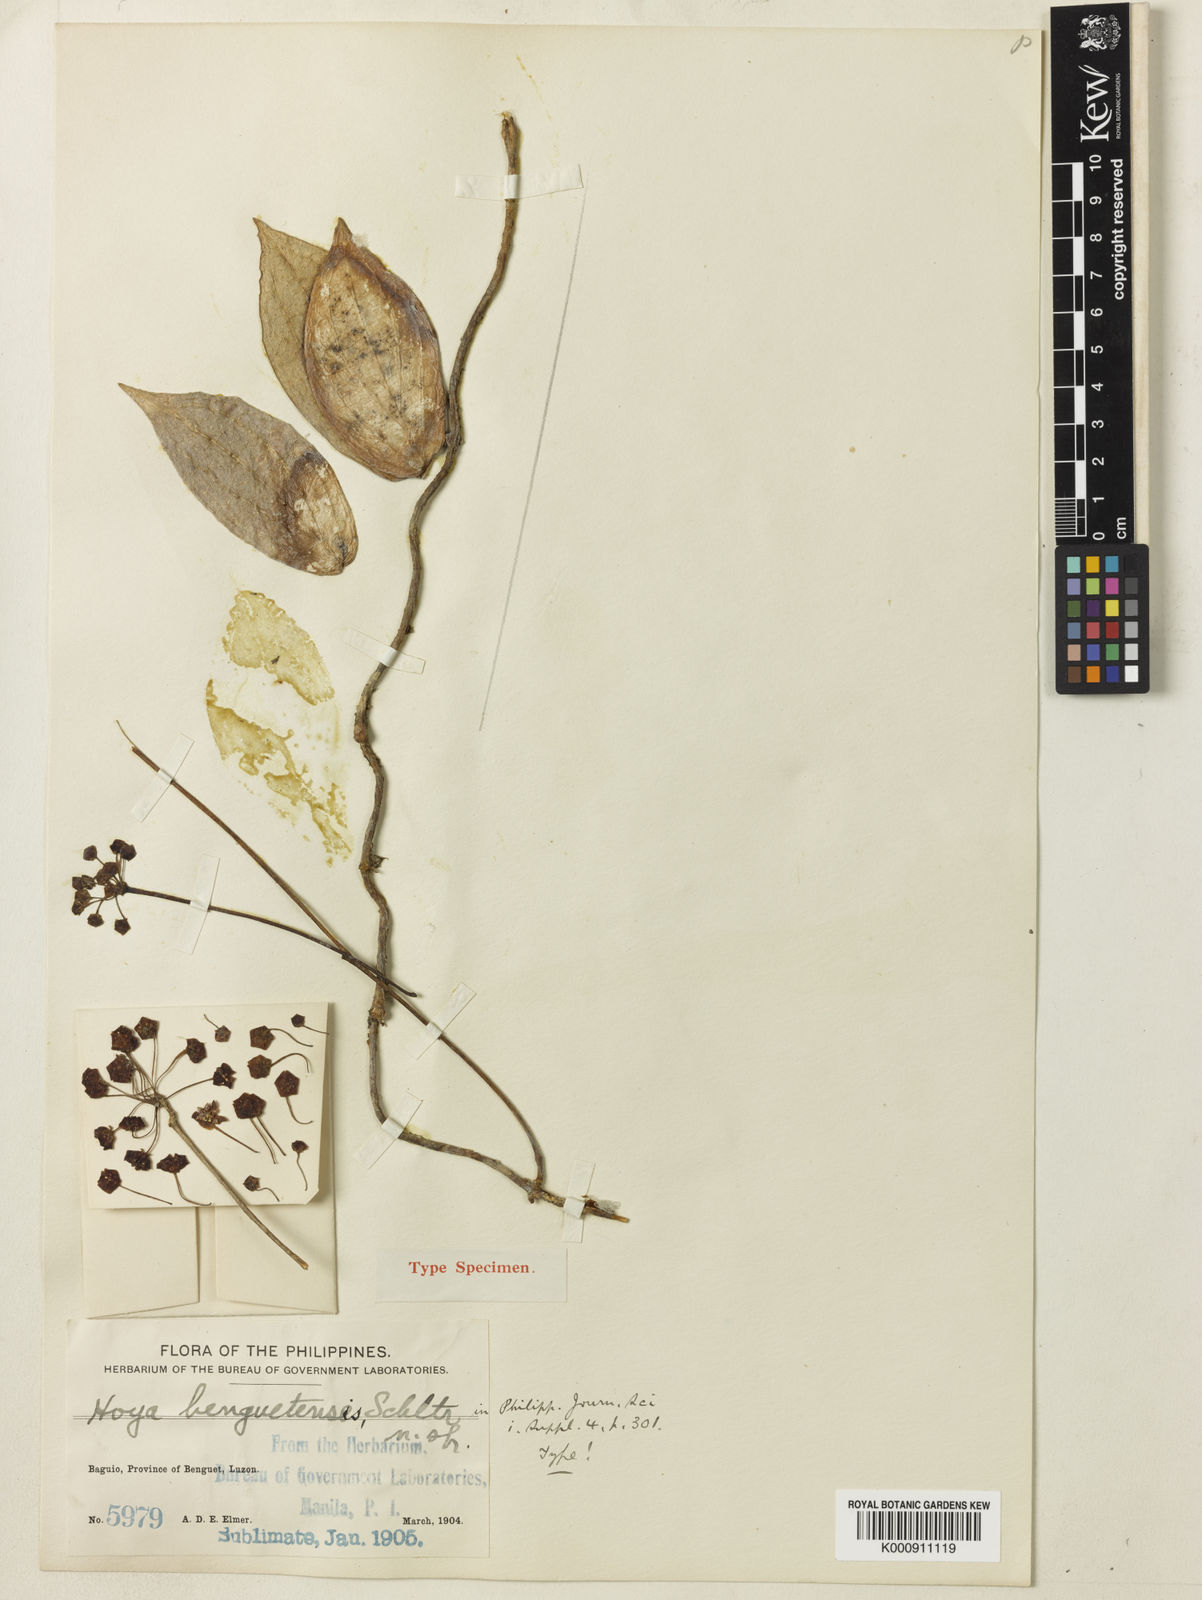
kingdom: Plantae
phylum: Tracheophyta
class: Magnoliopsida
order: Gentianales
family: Apocynaceae
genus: Hoya
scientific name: Hoya benguetensis
